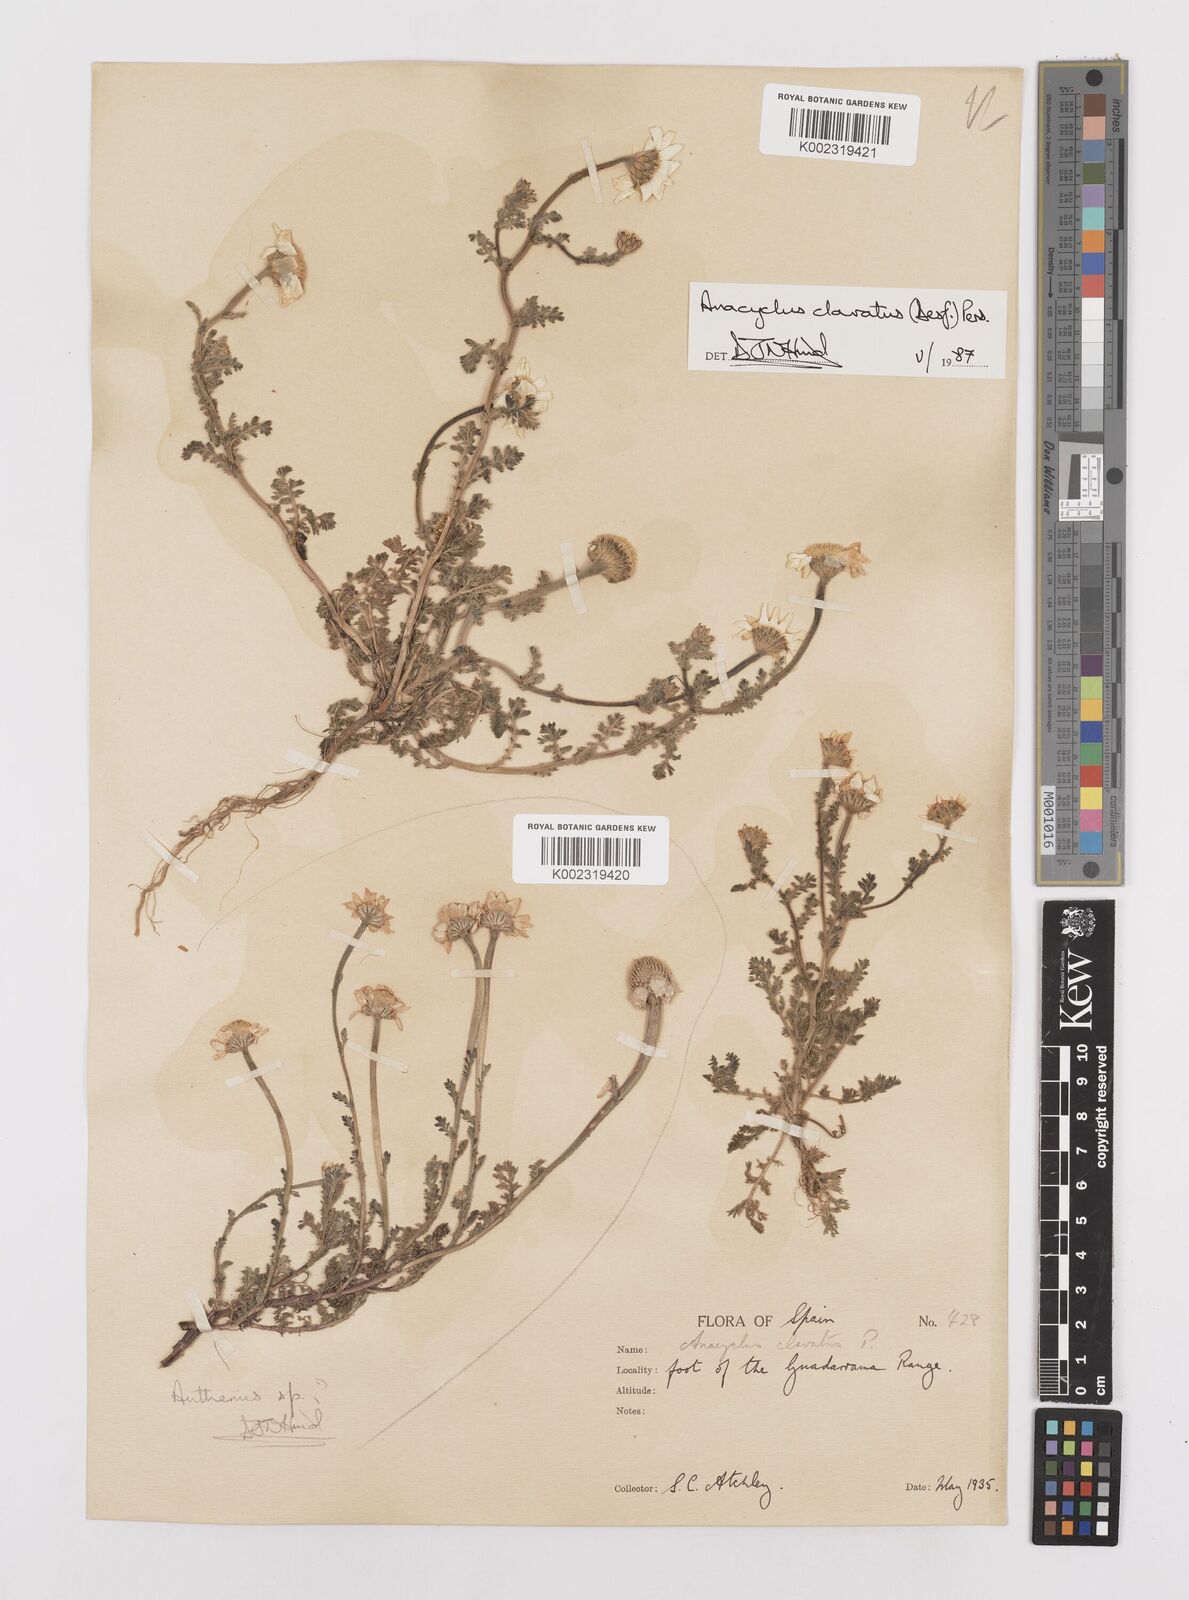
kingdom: Plantae
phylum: Tracheophyta
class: Magnoliopsida
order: Asterales
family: Asteraceae
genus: Anacyclus
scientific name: Anacyclus clavatus
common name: Whitebuttons
